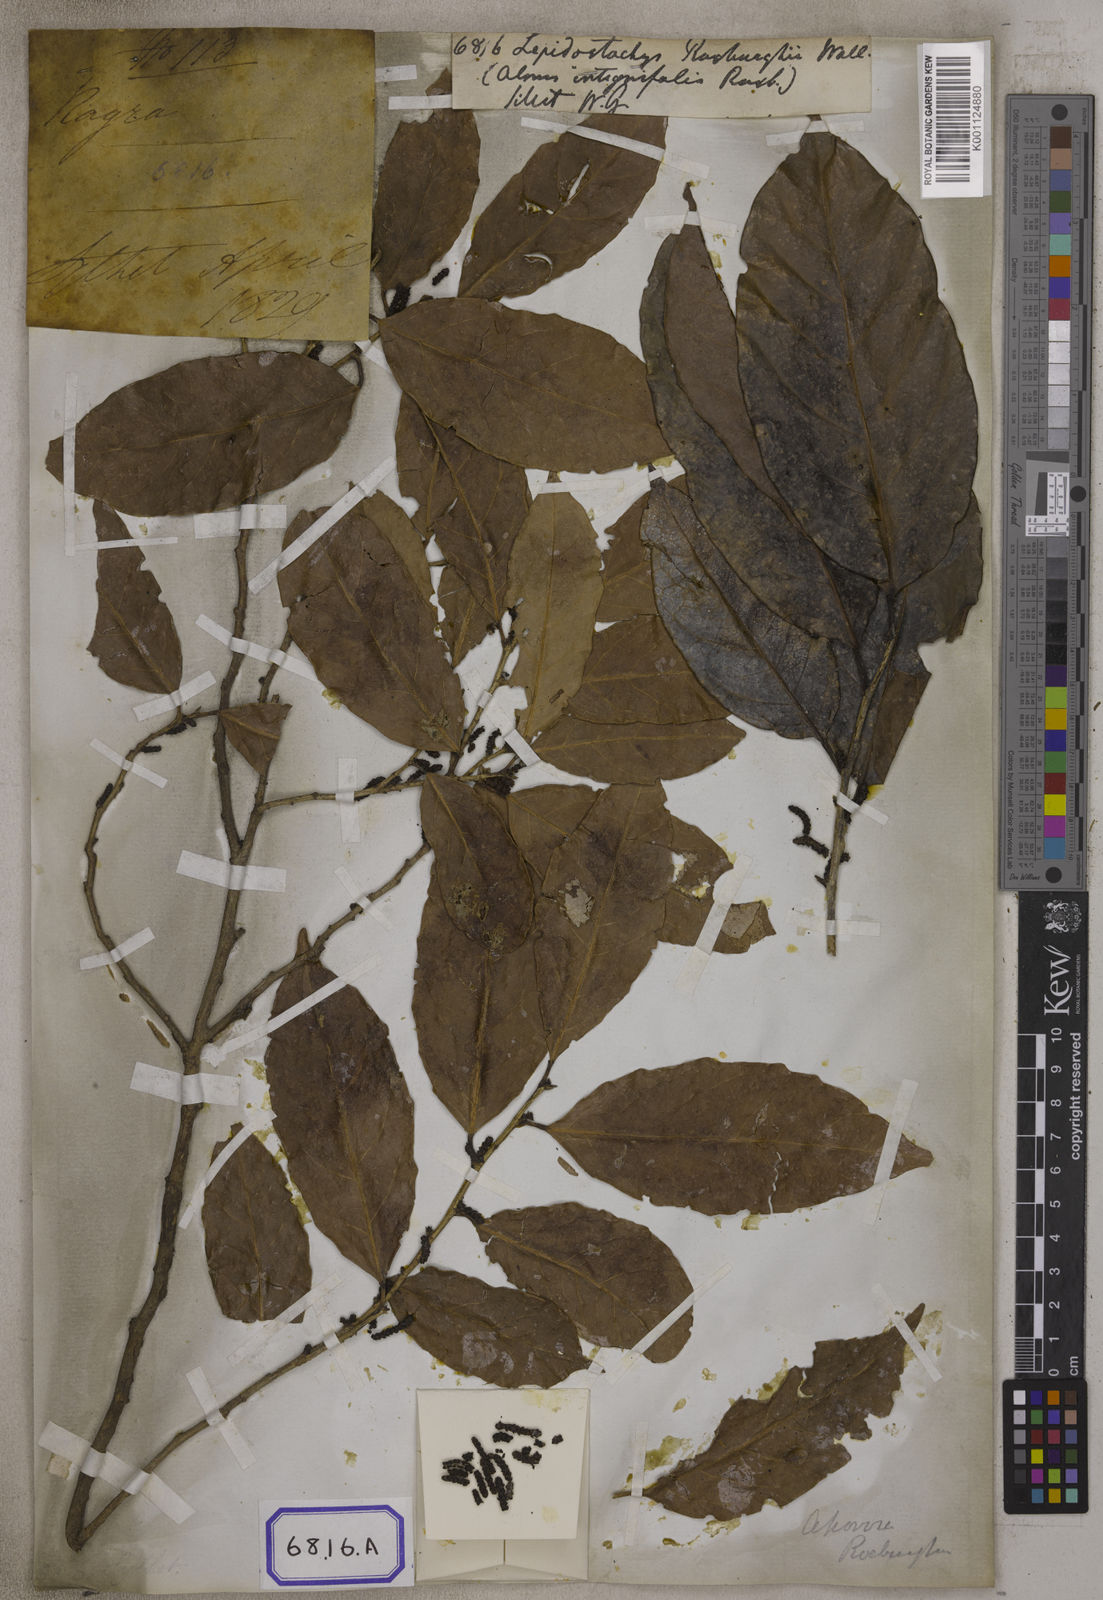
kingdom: Plantae
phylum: Tracheophyta
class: Magnoliopsida
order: Malpighiales
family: Phyllanthaceae
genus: Aporosa
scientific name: Aporosa
